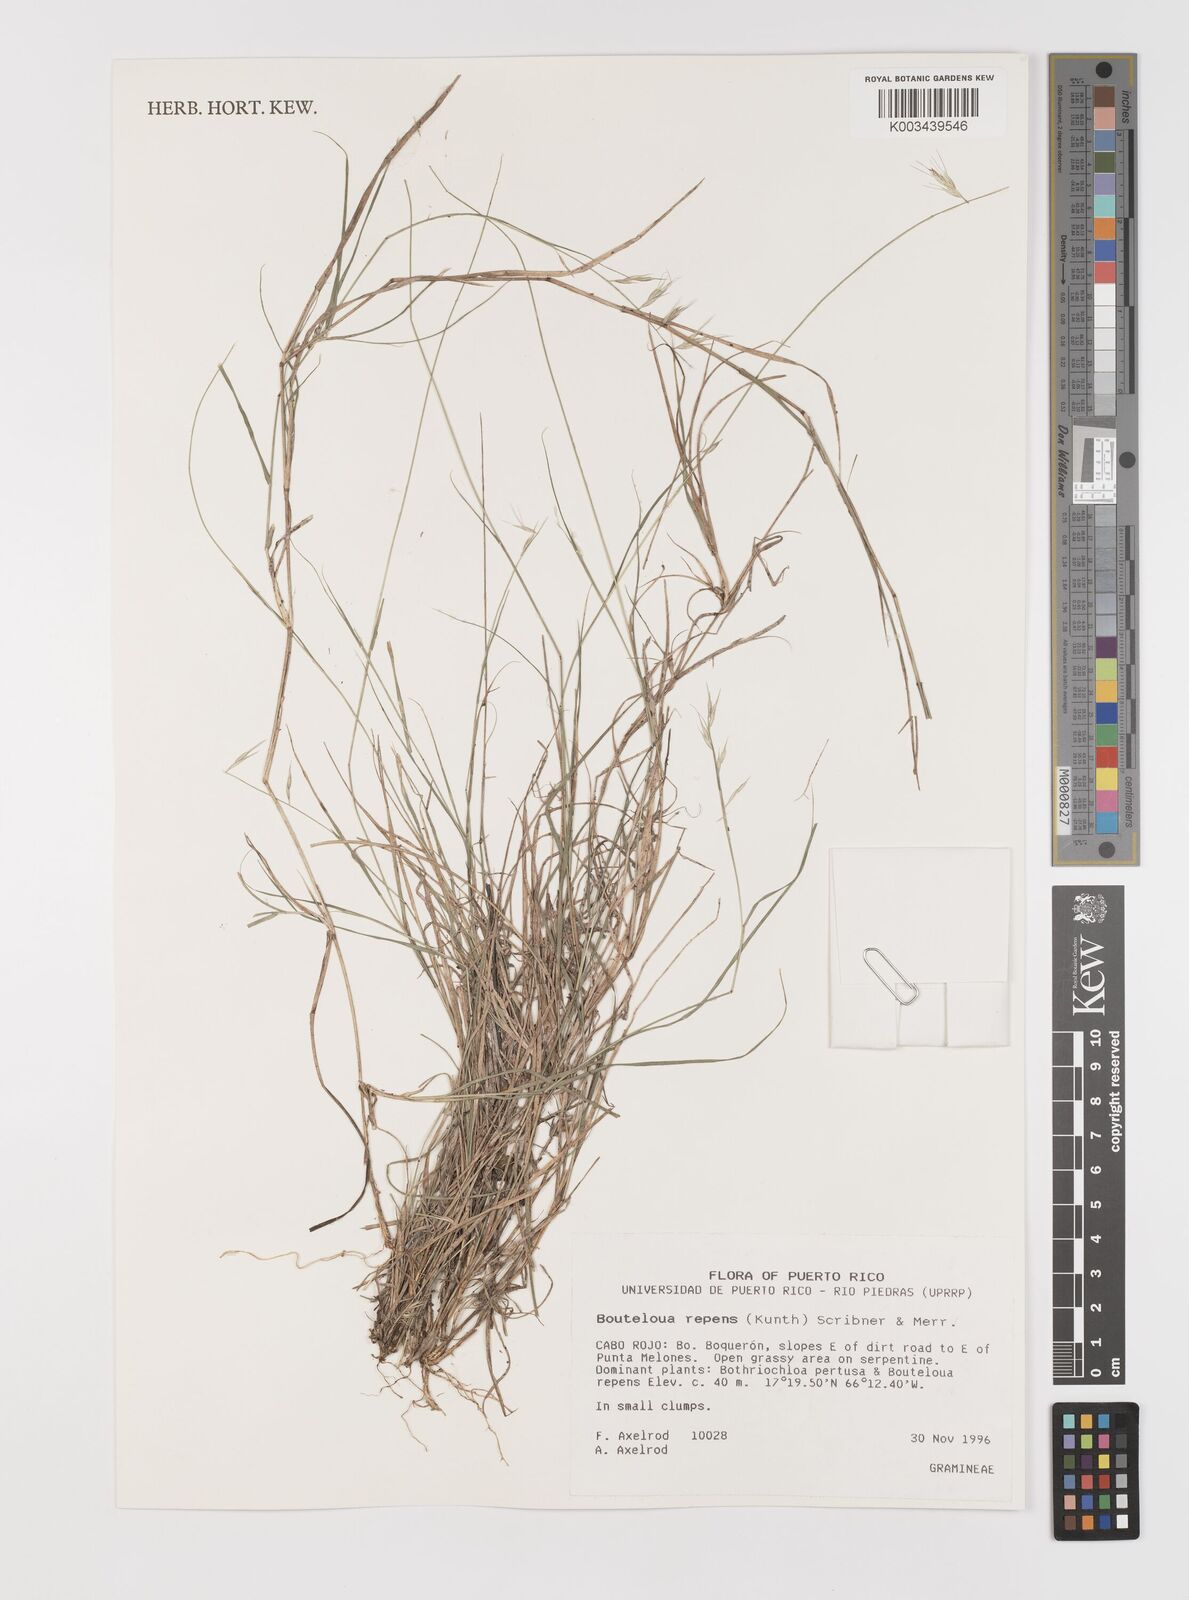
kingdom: Plantae
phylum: Tracheophyta
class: Liliopsida
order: Poales
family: Poaceae
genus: Bouteloua
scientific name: Bouteloua repens
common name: Slender grama
